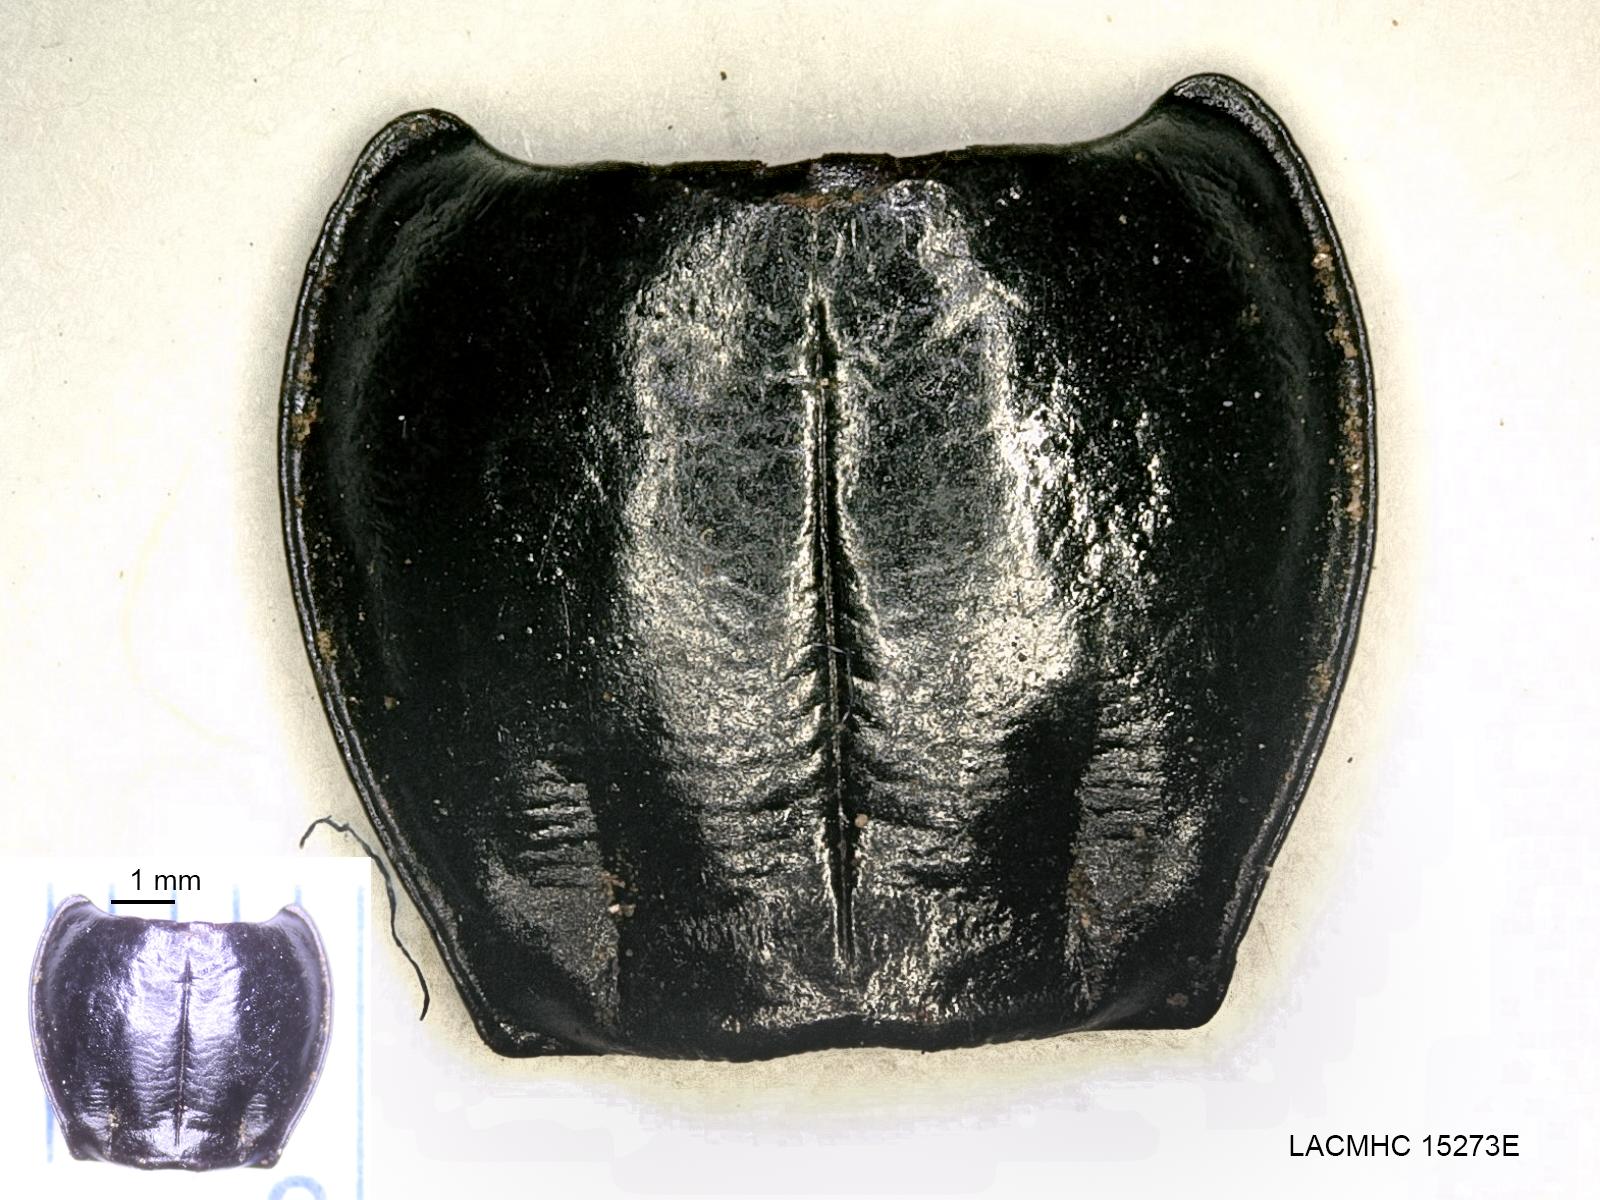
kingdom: Animalia
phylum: Arthropoda
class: Insecta
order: Coleoptera
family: Carabidae
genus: Pterostichus
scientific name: Pterostichus jacobinus
